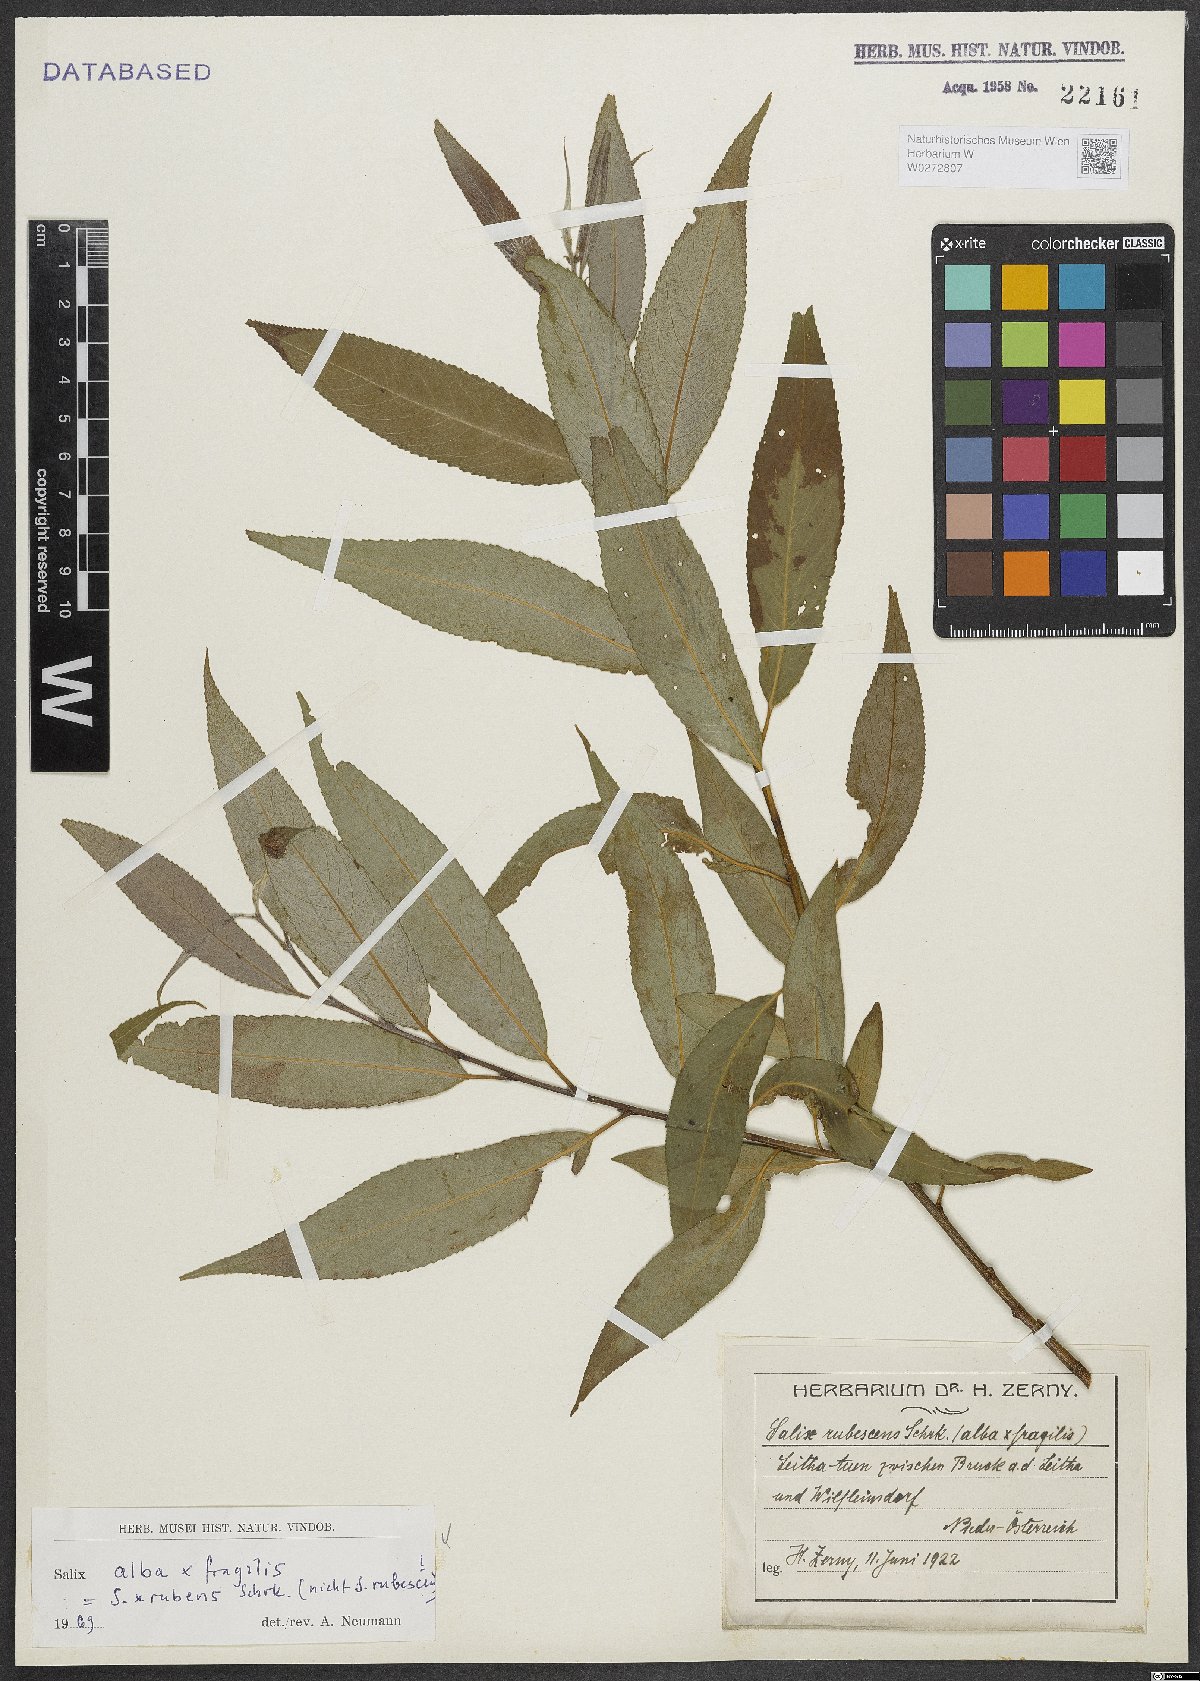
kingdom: Plantae
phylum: Tracheophyta
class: Magnoliopsida
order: Malpighiales
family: Salicaceae
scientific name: Salicaceae
